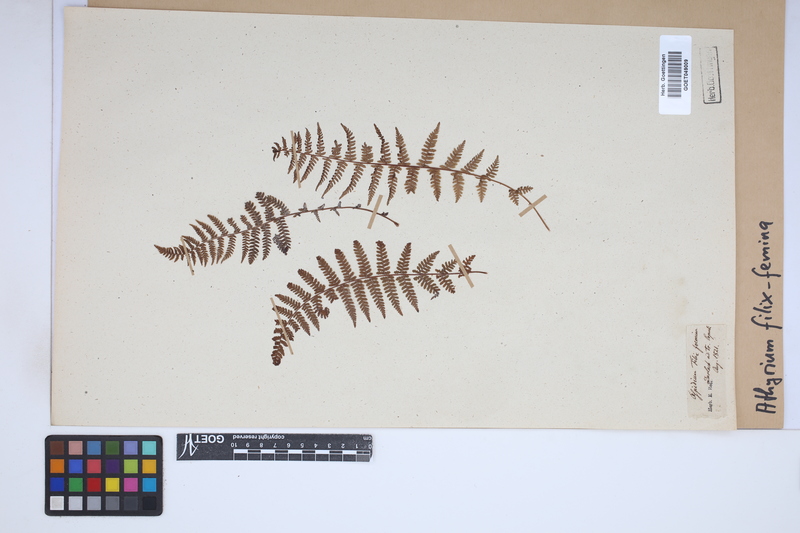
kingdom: Plantae
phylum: Tracheophyta
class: Polypodiopsida
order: Polypodiales
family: Athyriaceae
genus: Athyrium
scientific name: Athyrium filix-femina
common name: Lady fern
